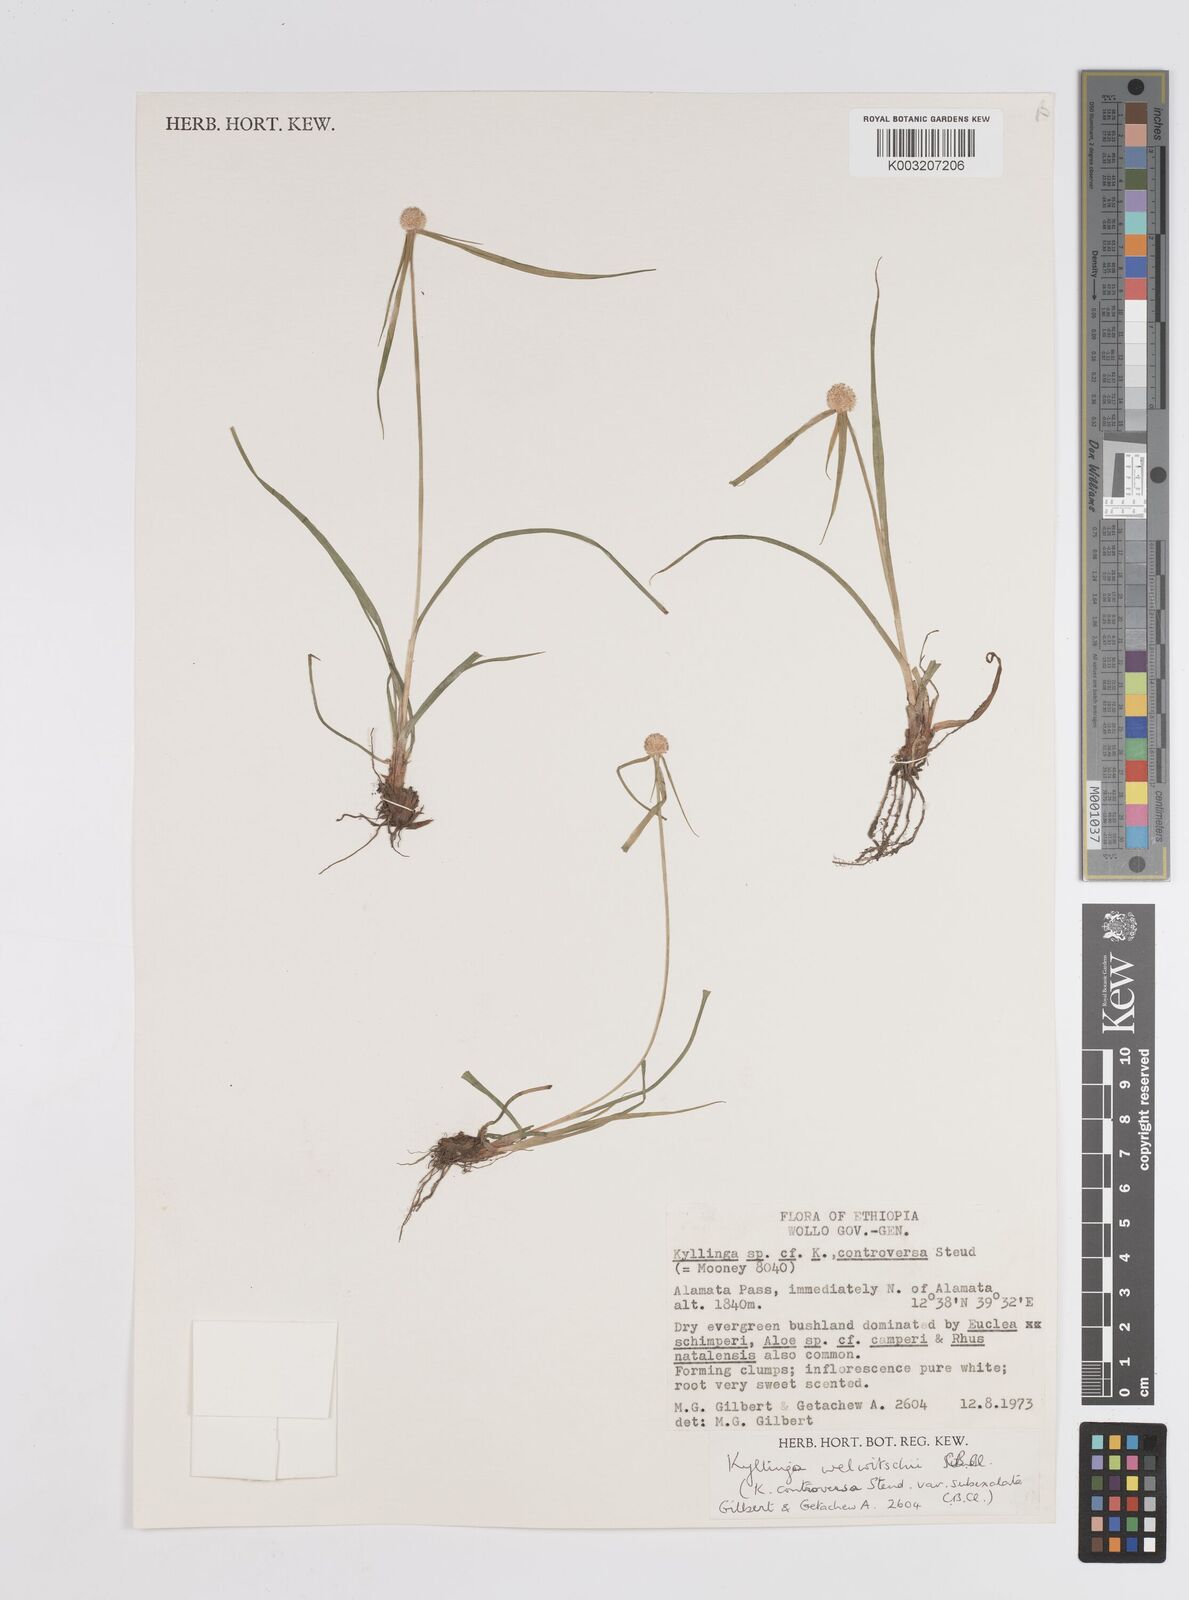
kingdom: Plantae
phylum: Tracheophyta
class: Liliopsida
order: Poales
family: Cyperaceae
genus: Cyperus
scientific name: Cyperus controversus
